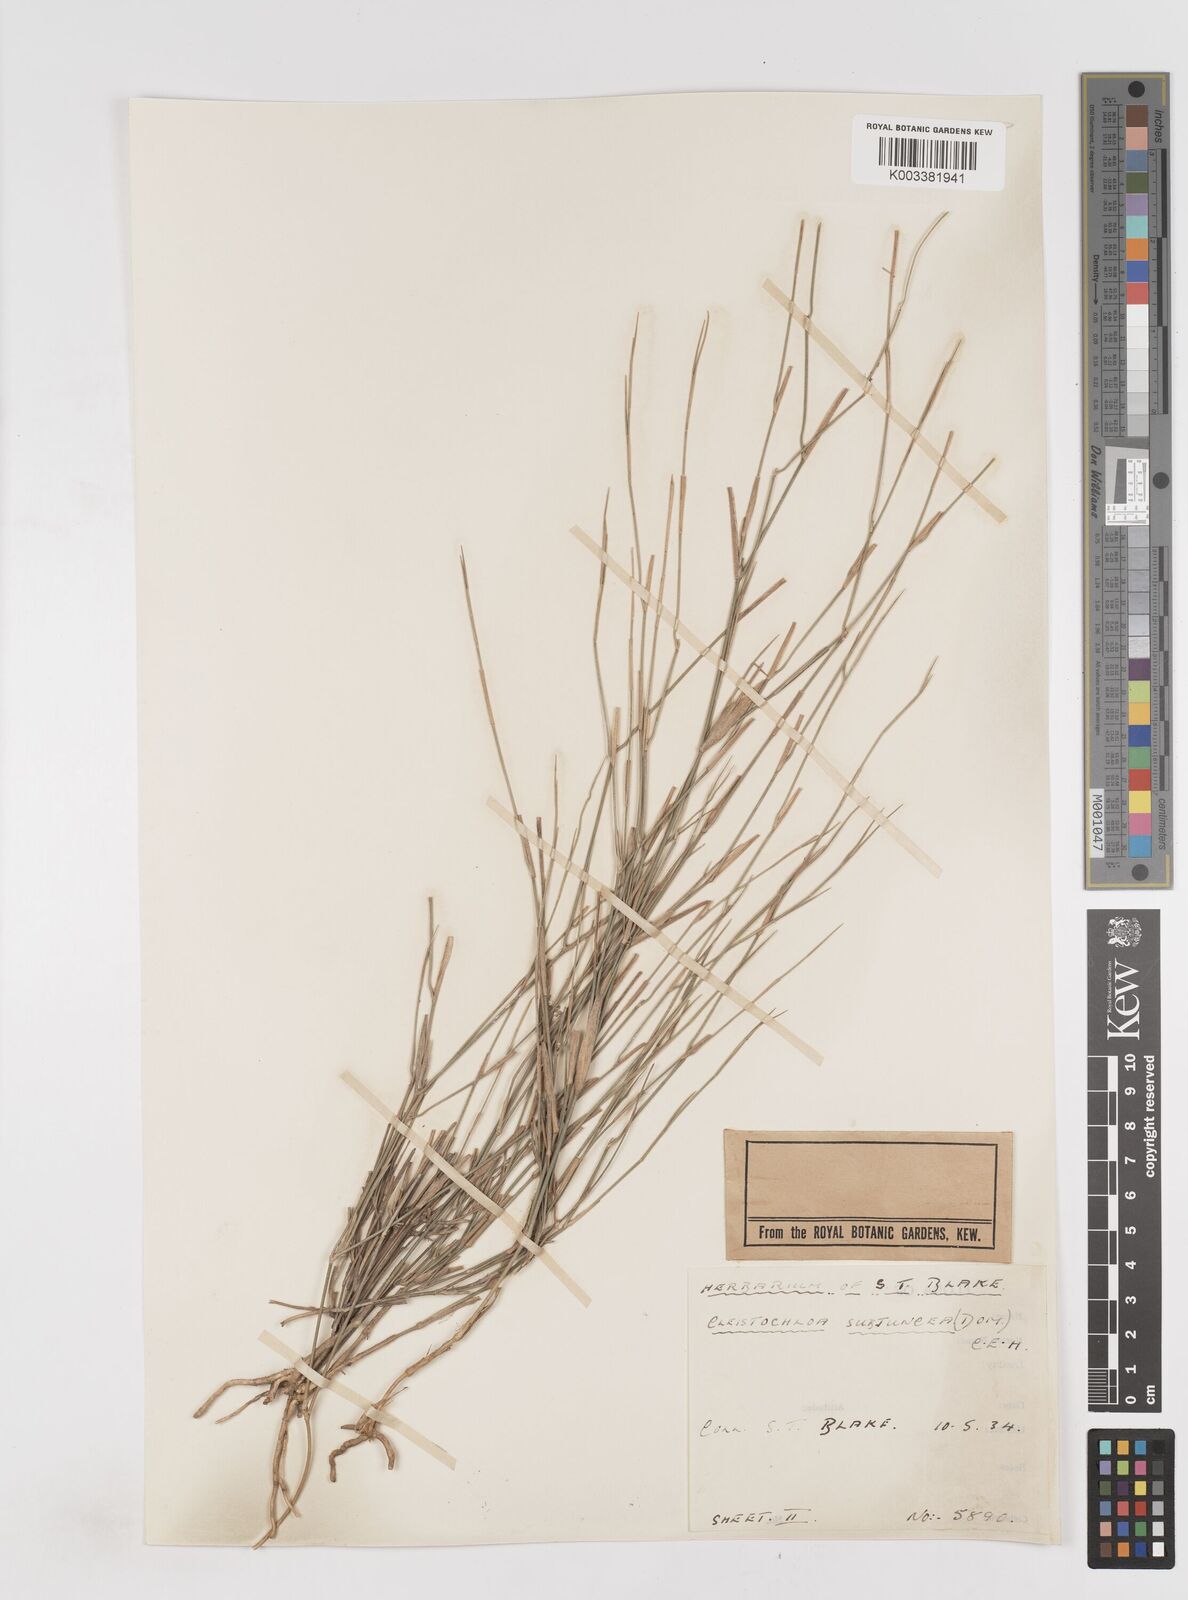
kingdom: Plantae
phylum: Tracheophyta
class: Liliopsida
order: Poales
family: Poaceae
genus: Cleistochloa
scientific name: Cleistochloa subjuncea
